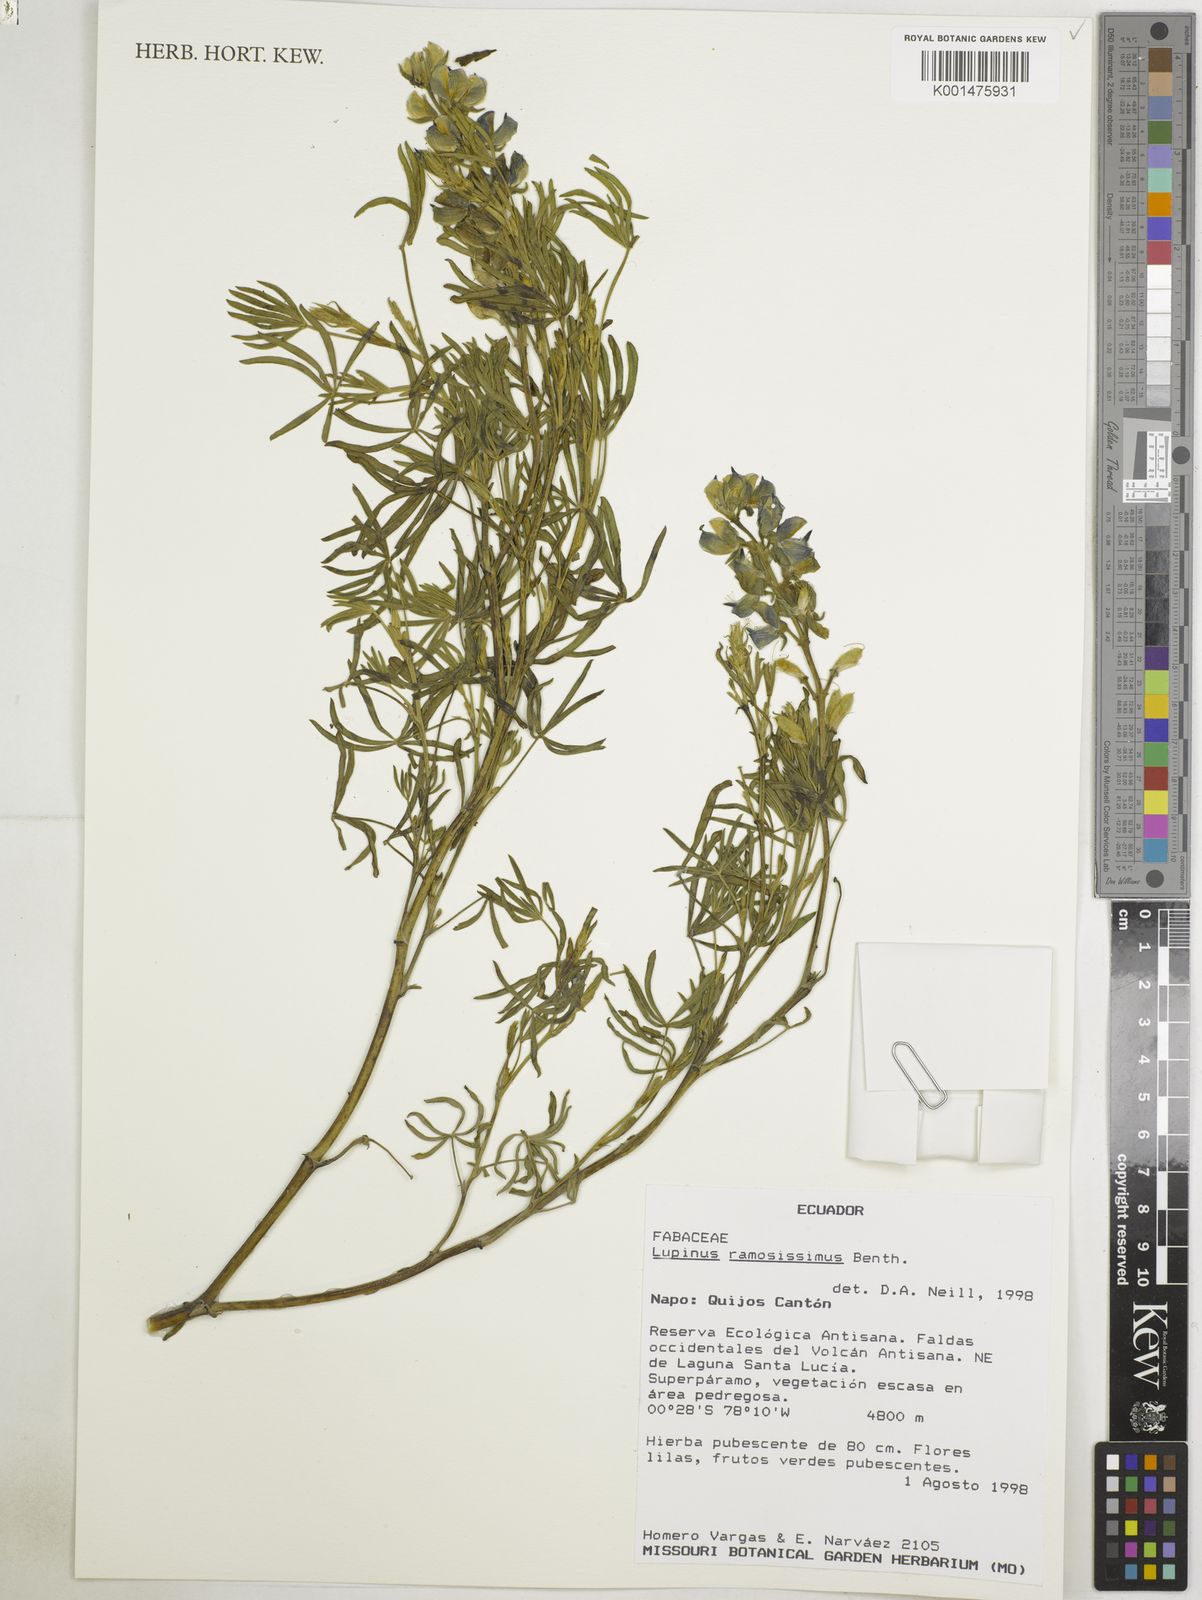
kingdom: Plantae
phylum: Tracheophyta
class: Magnoliopsida
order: Fabales
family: Fabaceae
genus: Lupinus
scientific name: Lupinus ramosissimus
